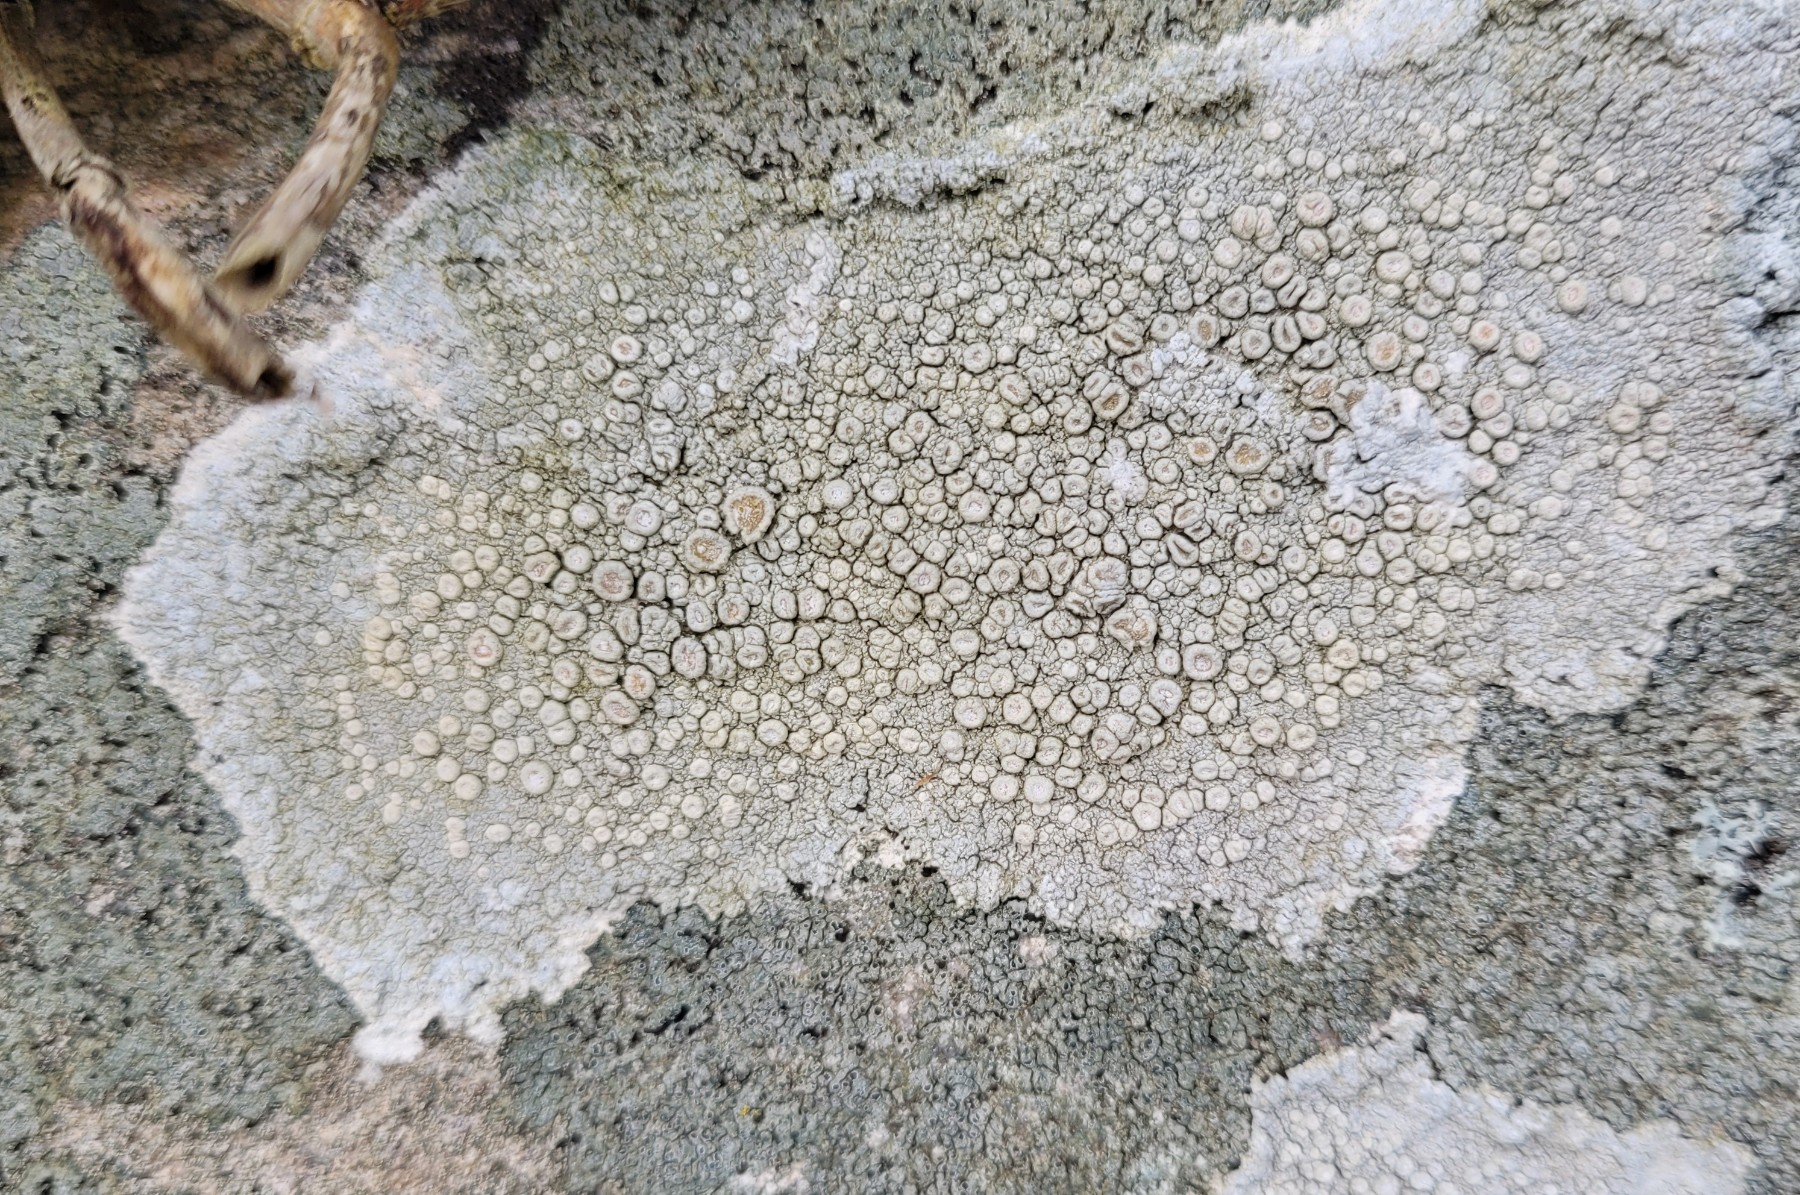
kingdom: Fungi
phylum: Ascomycota
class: Lecanoromycetes
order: Pertusariales
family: Ochrolechiaceae
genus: Ochrolechia
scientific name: Ochrolechia parella
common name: almindelig blegskivelav
